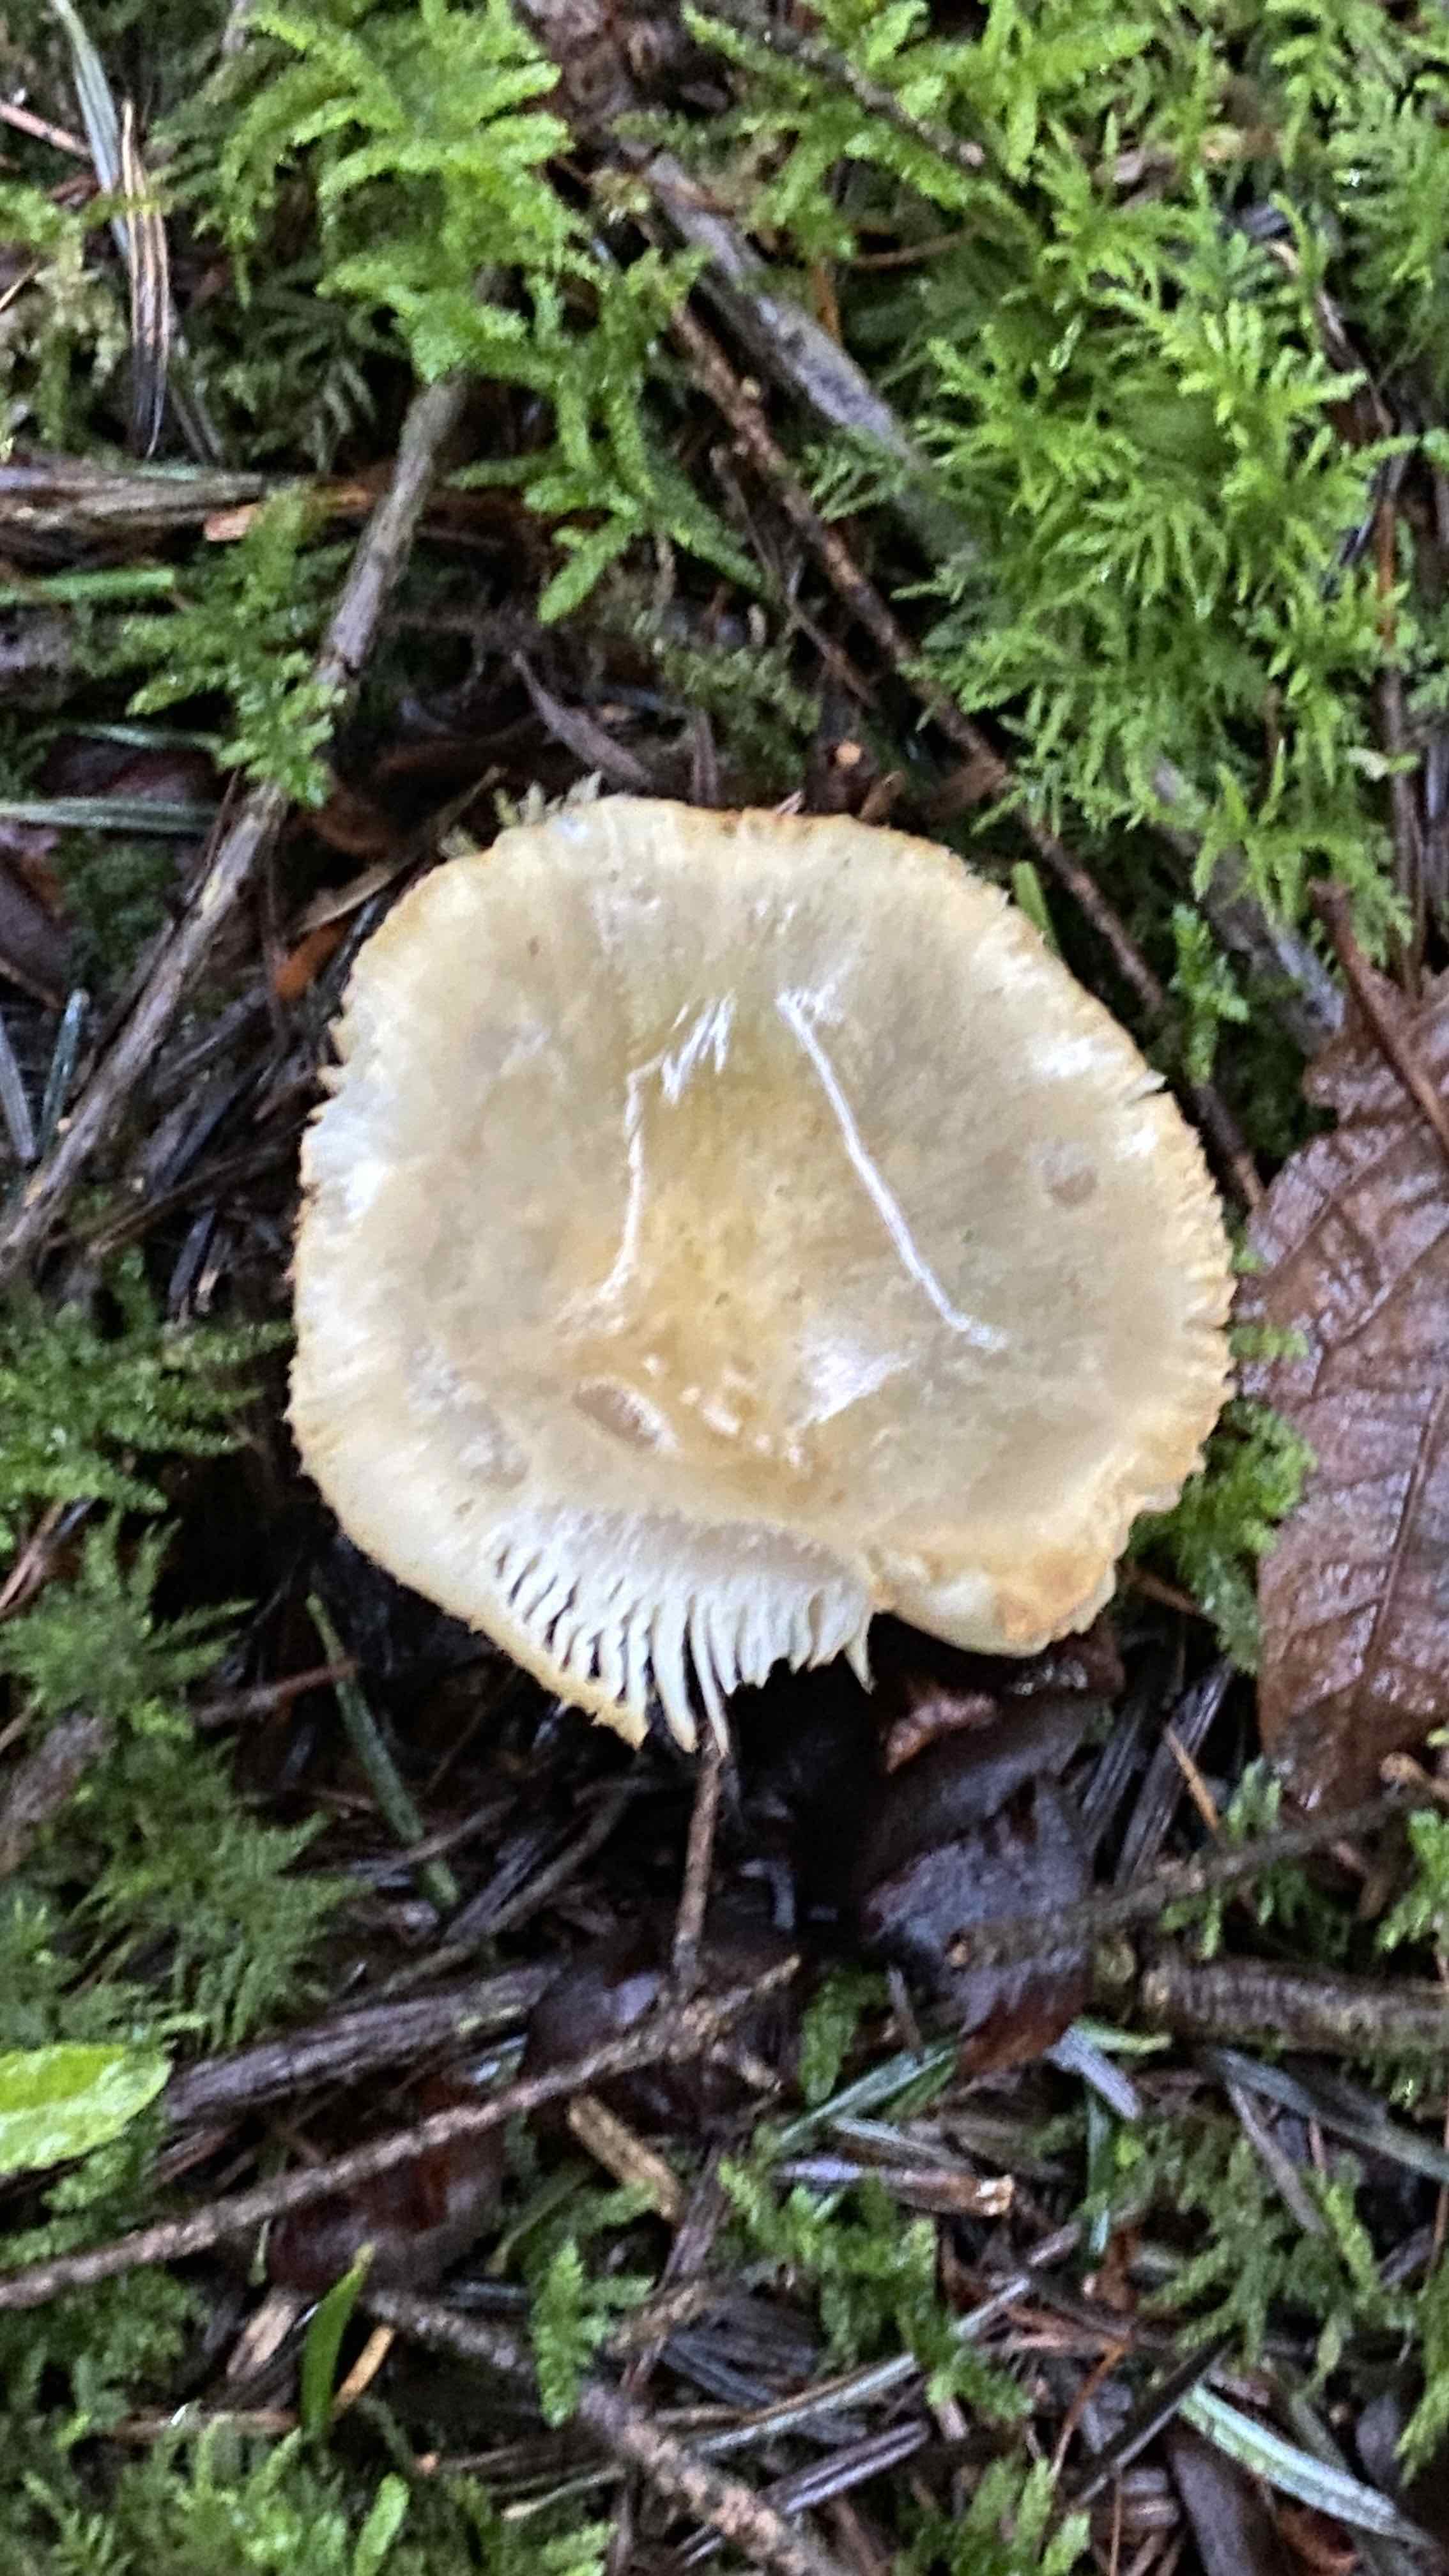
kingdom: Fungi
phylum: Basidiomycota
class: Agaricomycetes
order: Russulales
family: Russulaceae
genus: Russula
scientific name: Russula ochroleuca
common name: okkergul skørhat
